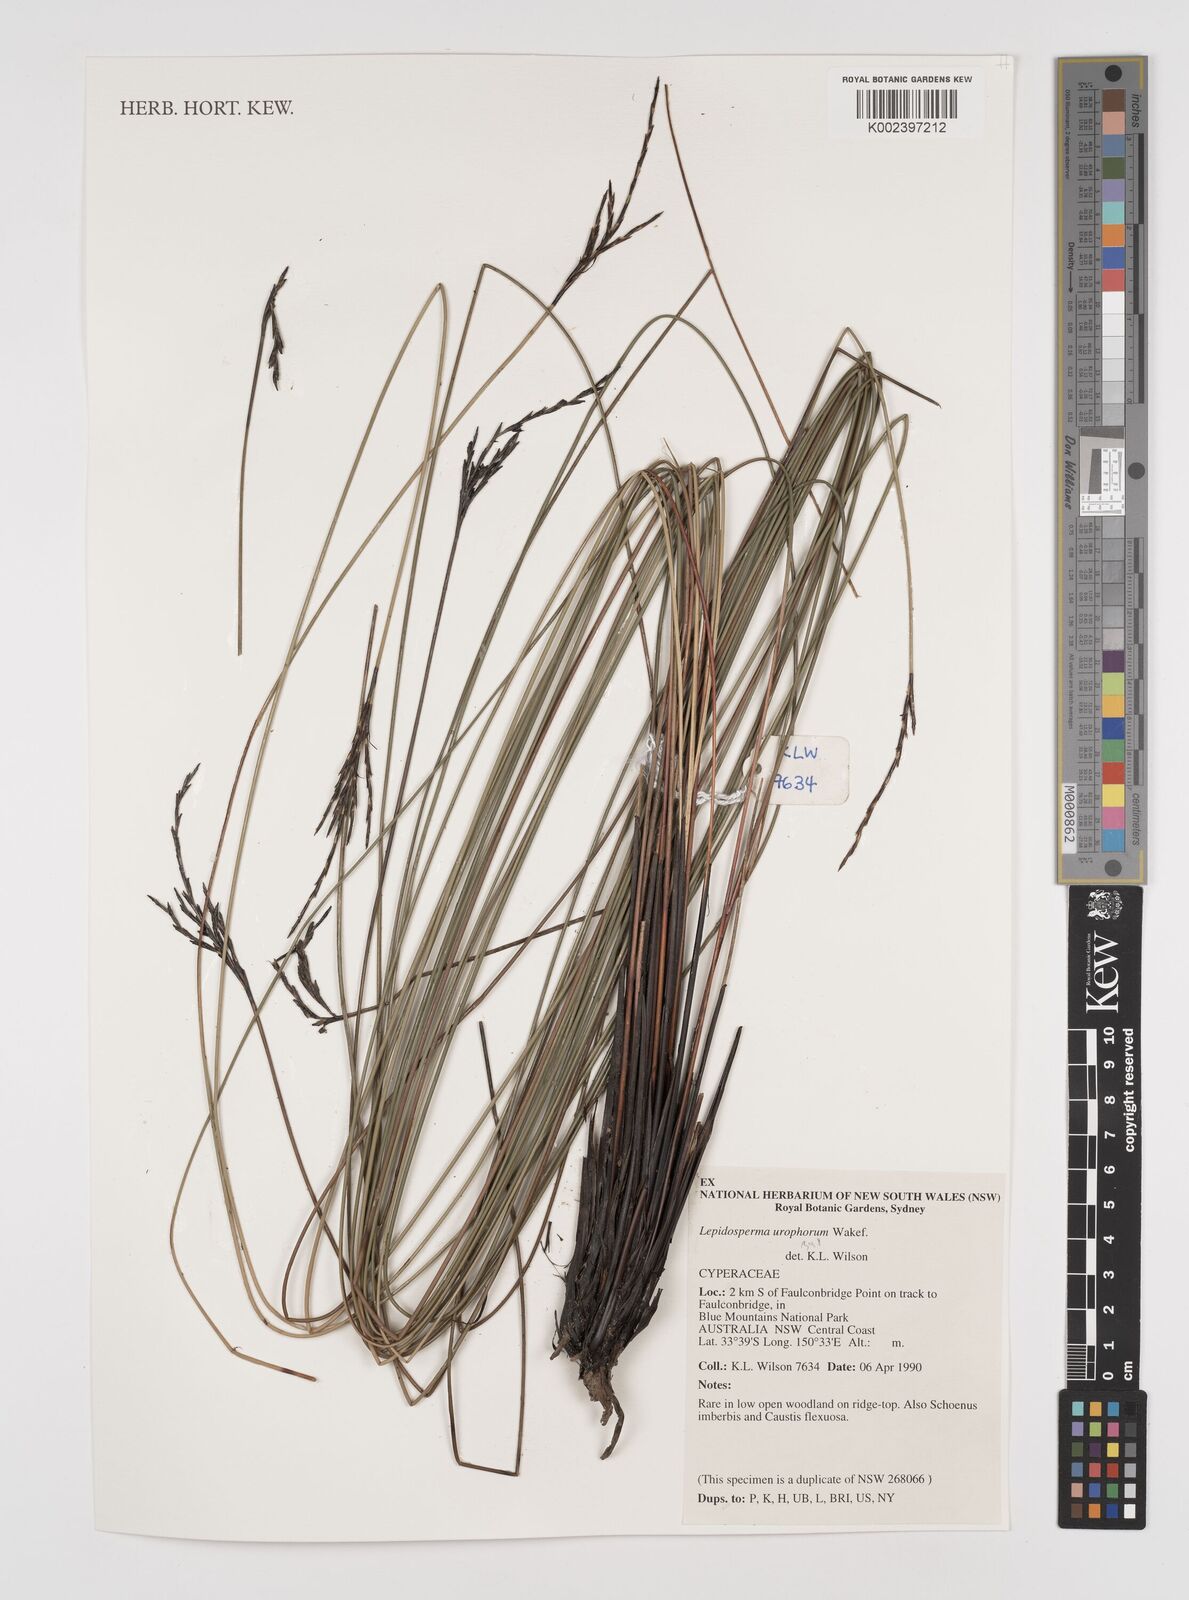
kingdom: Plantae
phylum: Tracheophyta
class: Liliopsida
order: Poales
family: Cyperaceae
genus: Lepidosperma
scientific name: Lepidosperma urophorum
